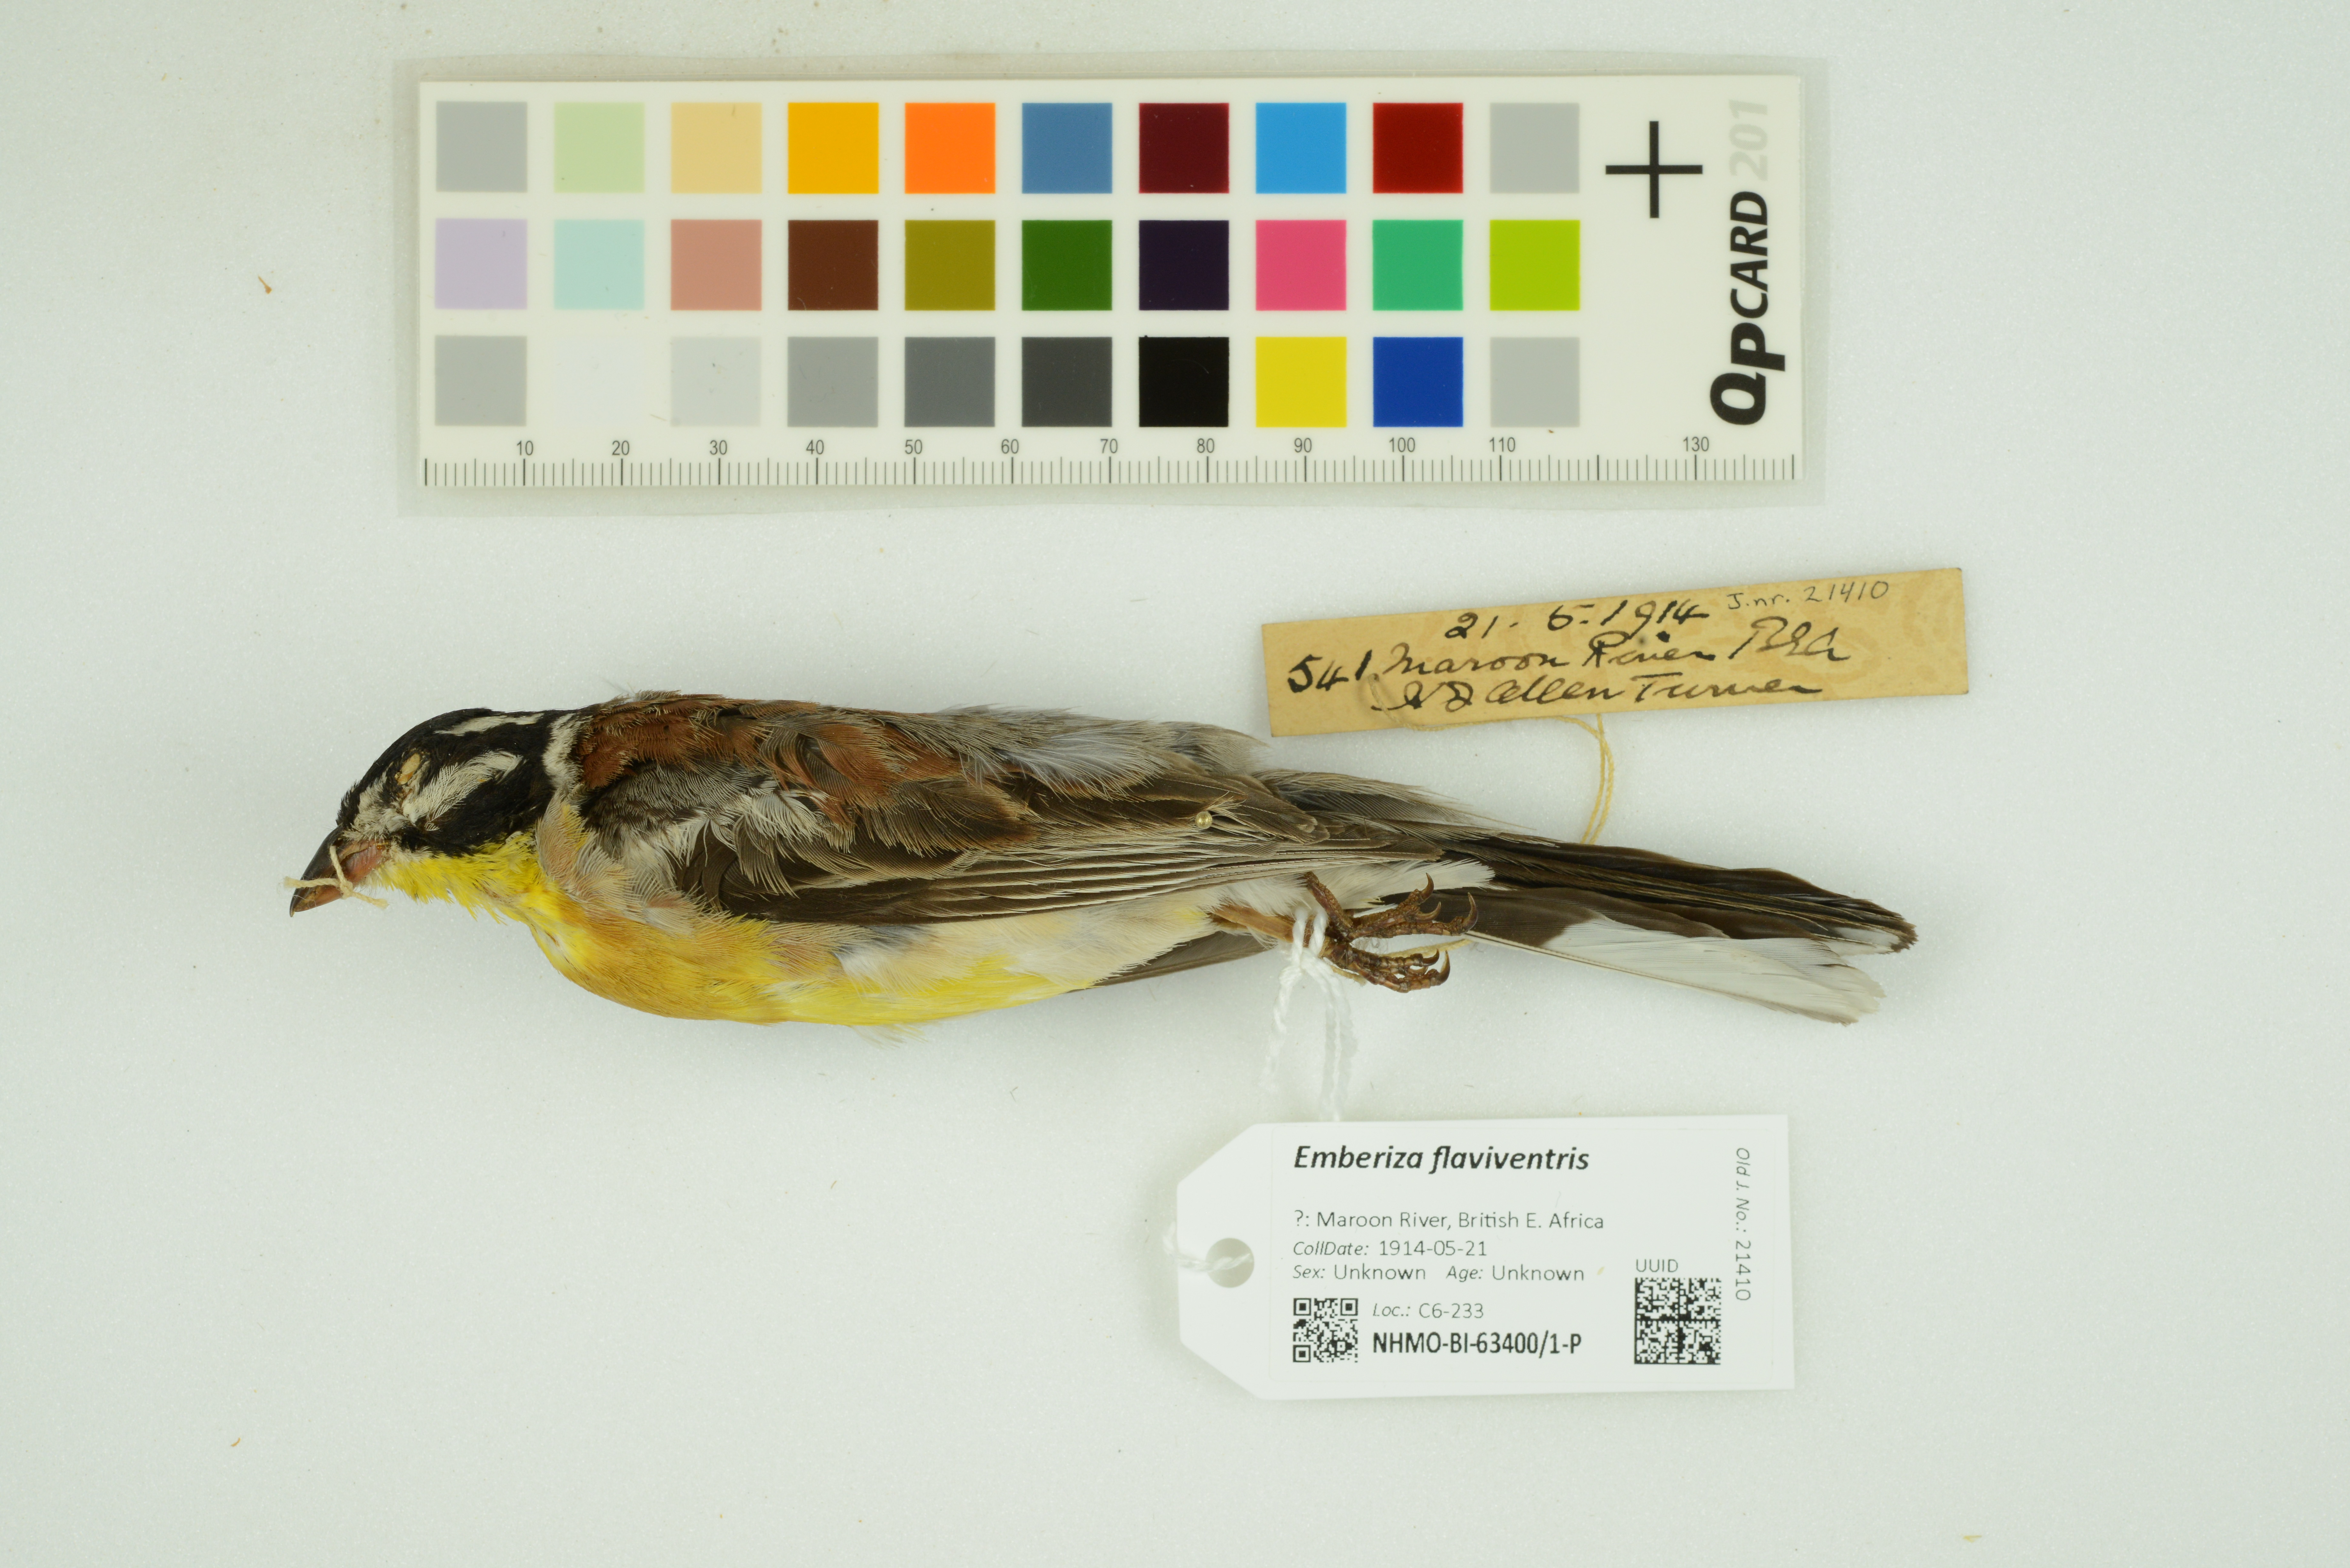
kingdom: Animalia
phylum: Chordata
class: Aves
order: Passeriformes
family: Emberizidae
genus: Emberiza
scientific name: Emberiza flaviventris
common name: Golden-breasted bunting
